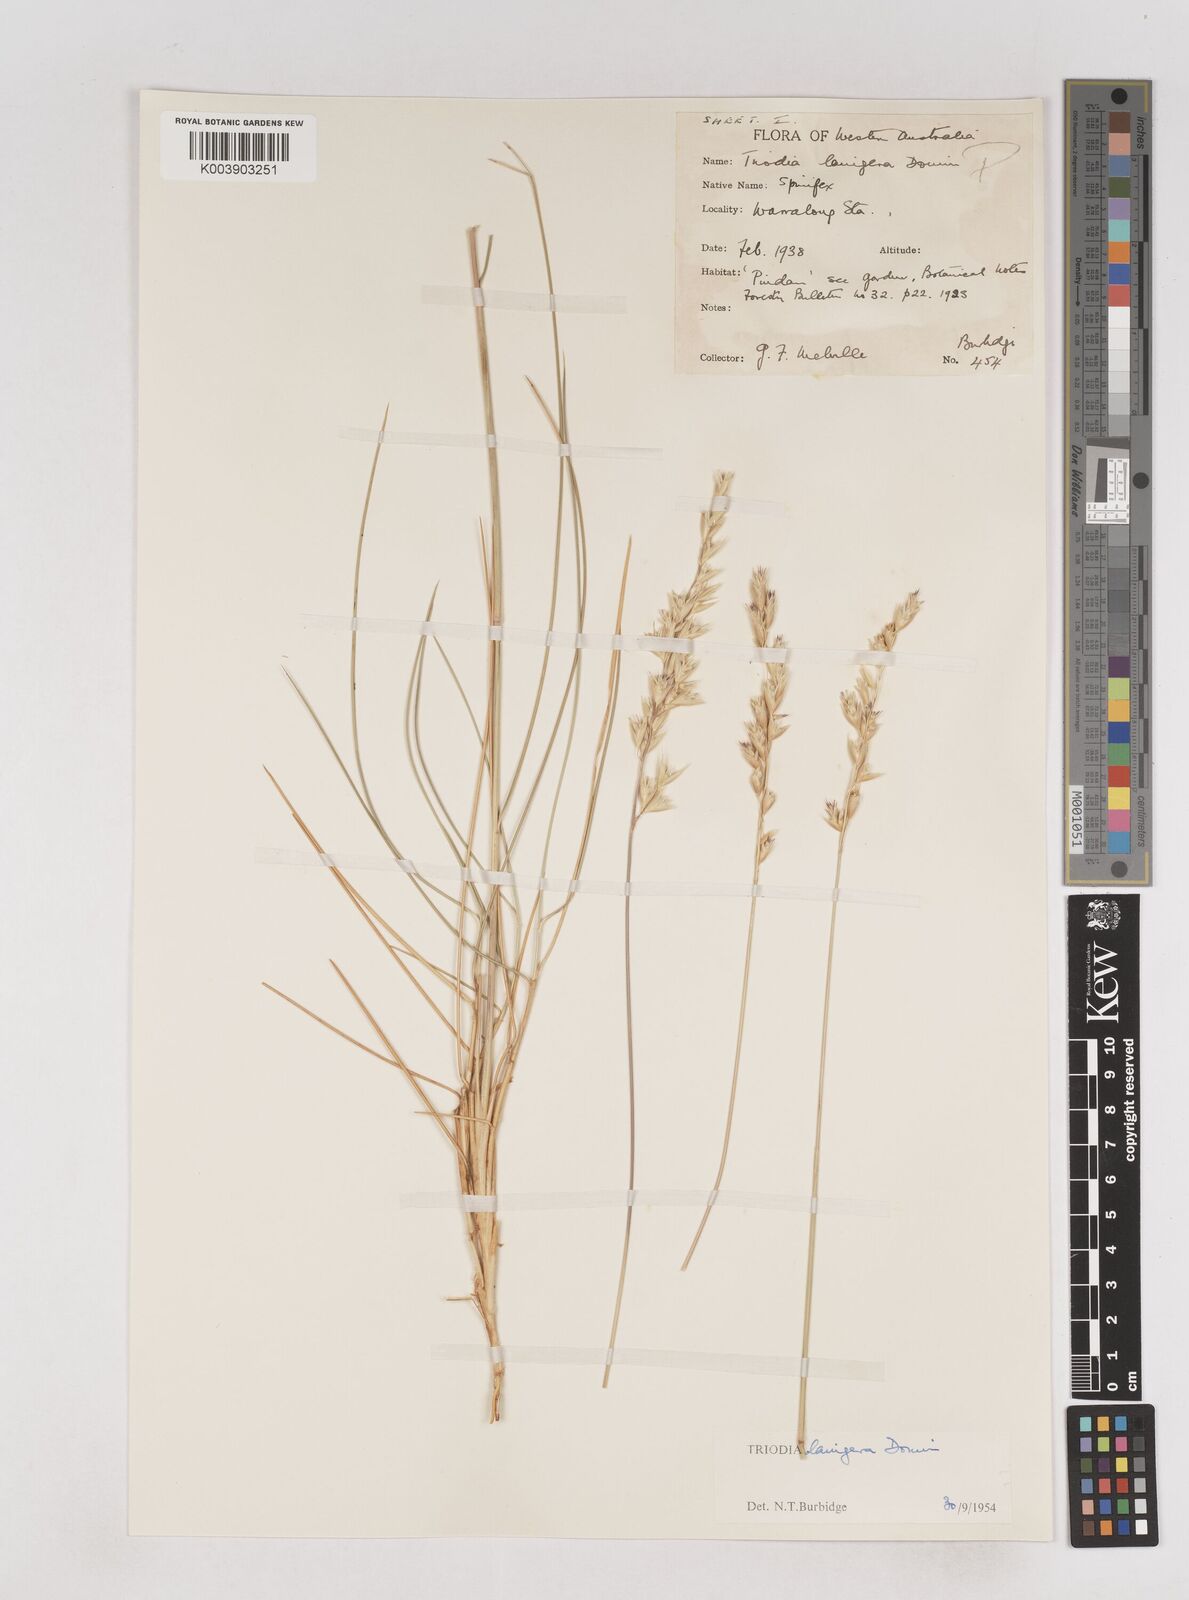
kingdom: Plantae
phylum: Tracheophyta
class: Liliopsida
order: Poales
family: Poaceae
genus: Triodia
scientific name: Triodia lanigera
